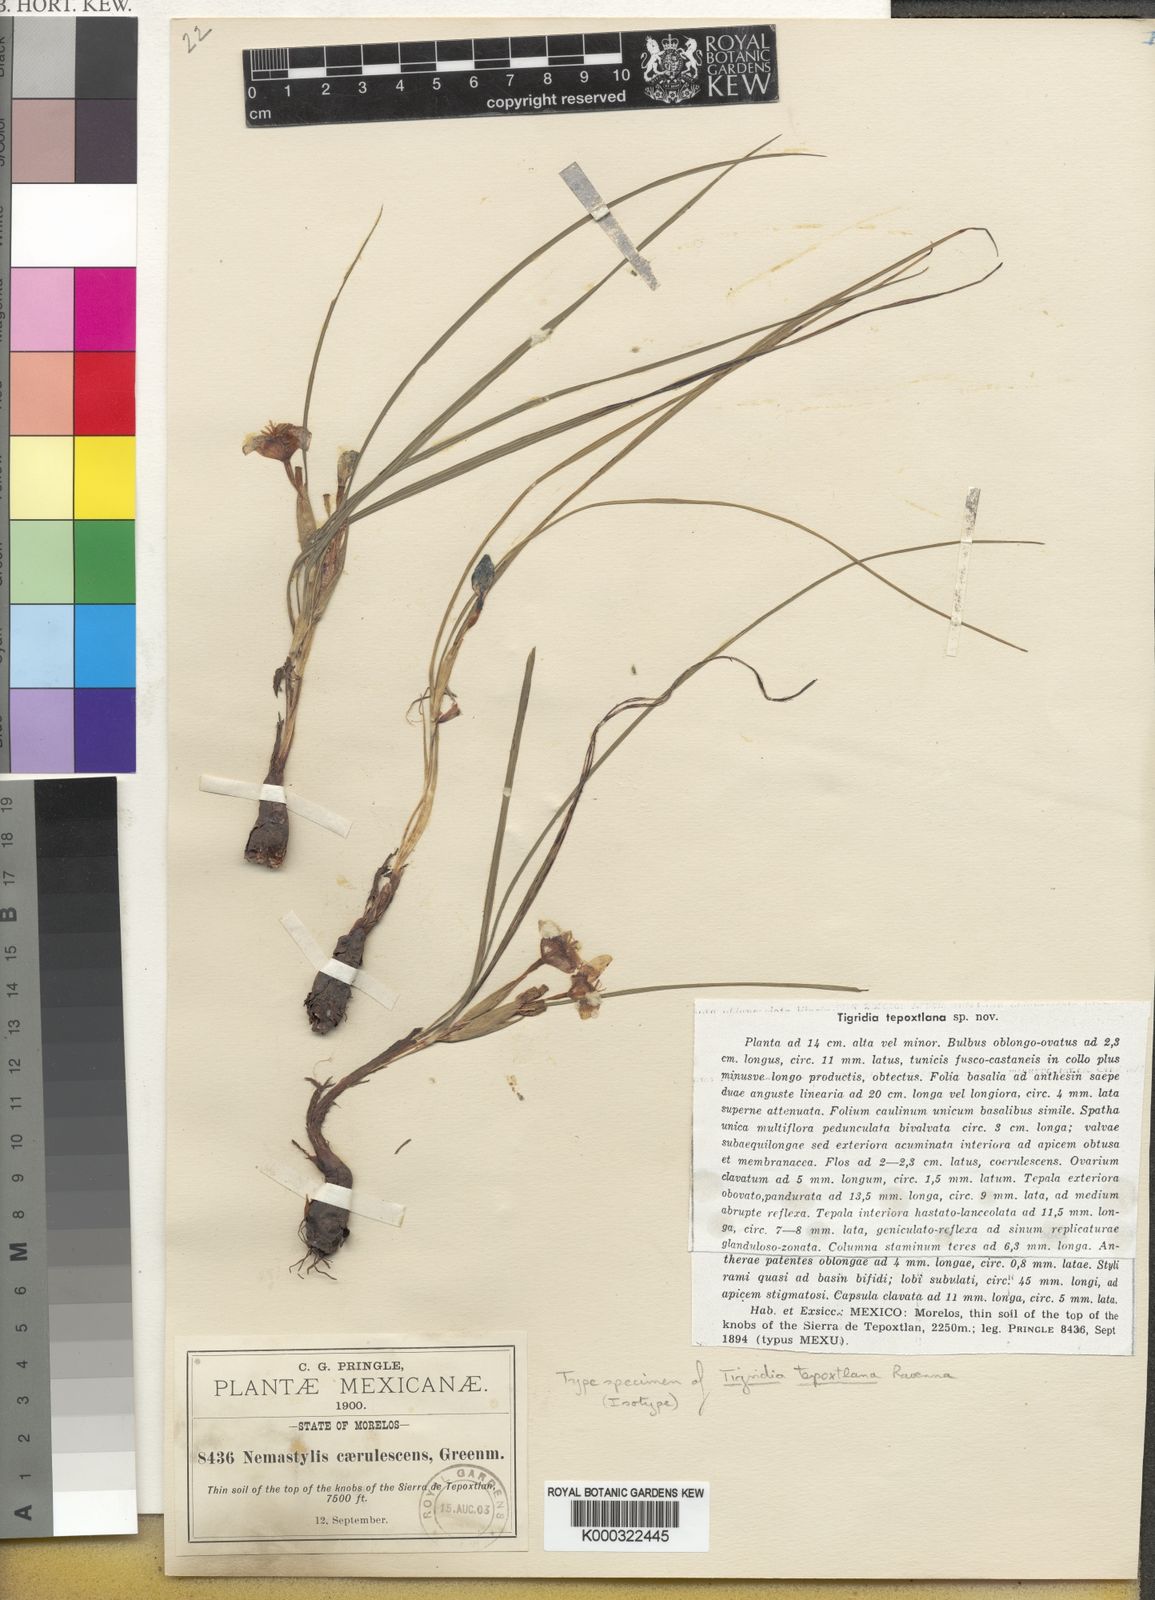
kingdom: Plantae
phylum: Tracheophyta
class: Liliopsida
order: Asparagales
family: Iridaceae
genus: Tigridia
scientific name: Tigridia tepoxtlana
